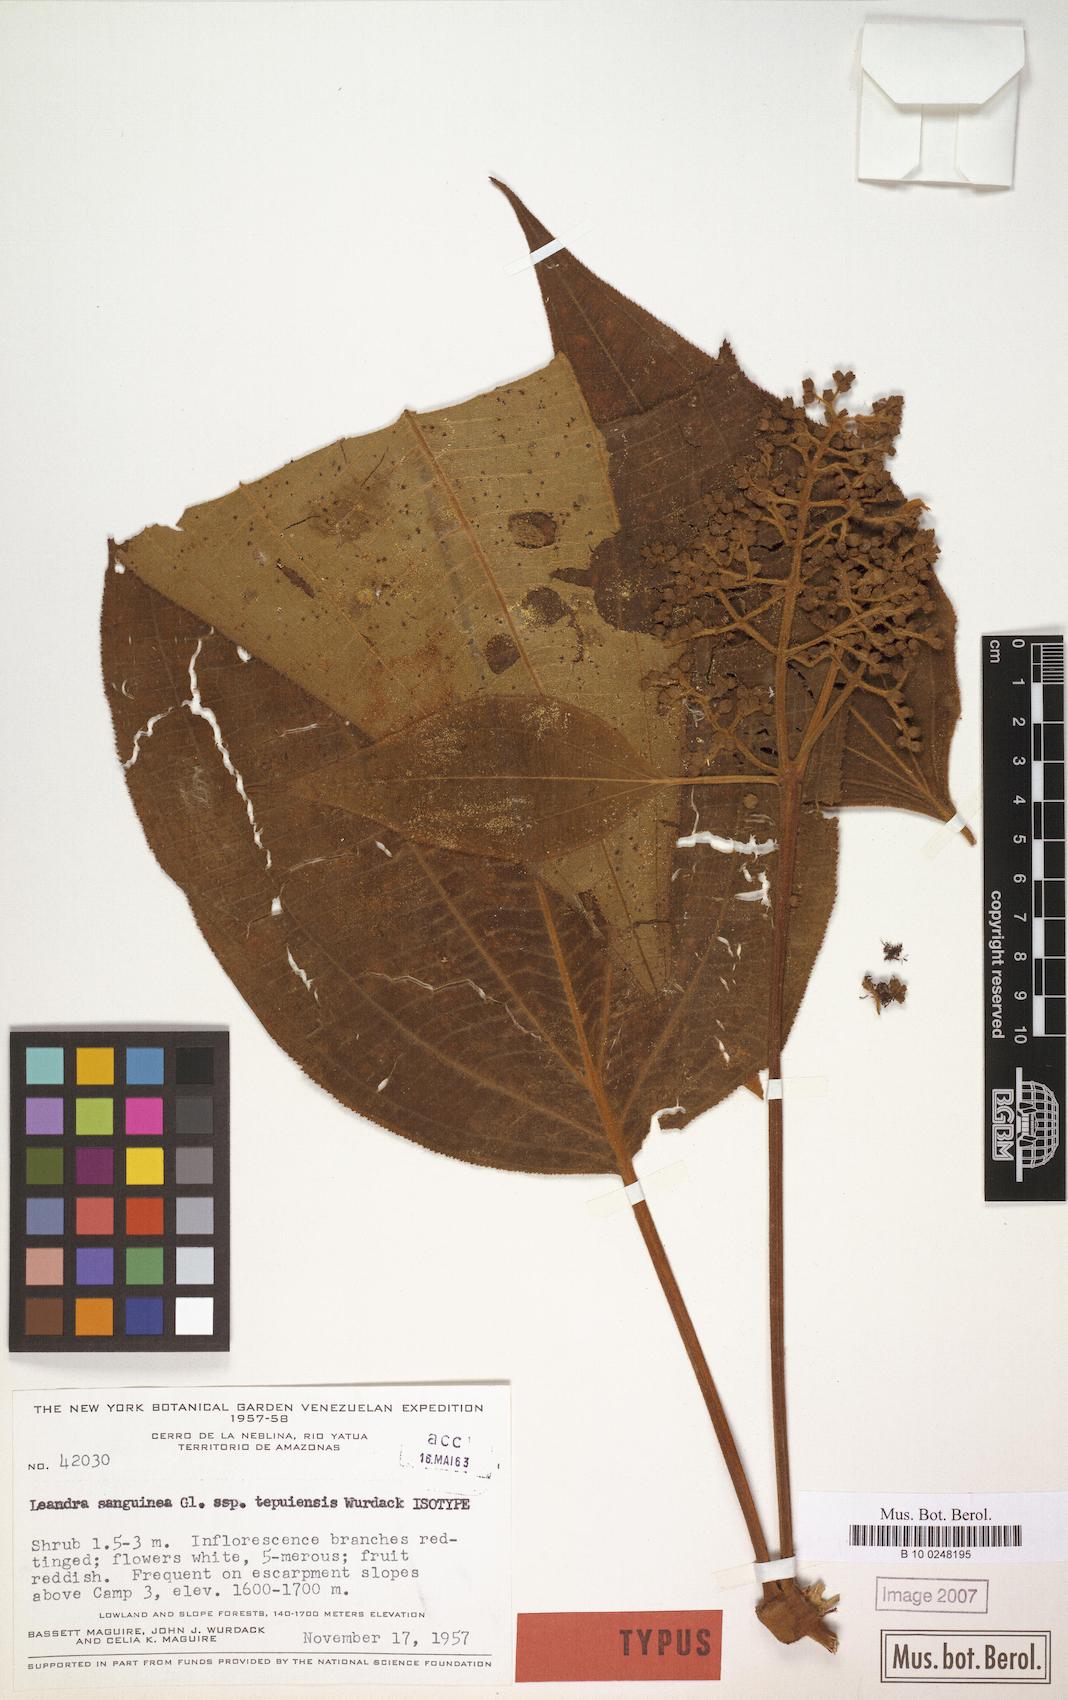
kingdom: Plantae
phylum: Tracheophyta
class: Magnoliopsida
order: Myrtales
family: Melastomataceae
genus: Miconia
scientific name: Miconia secunsanguinea
